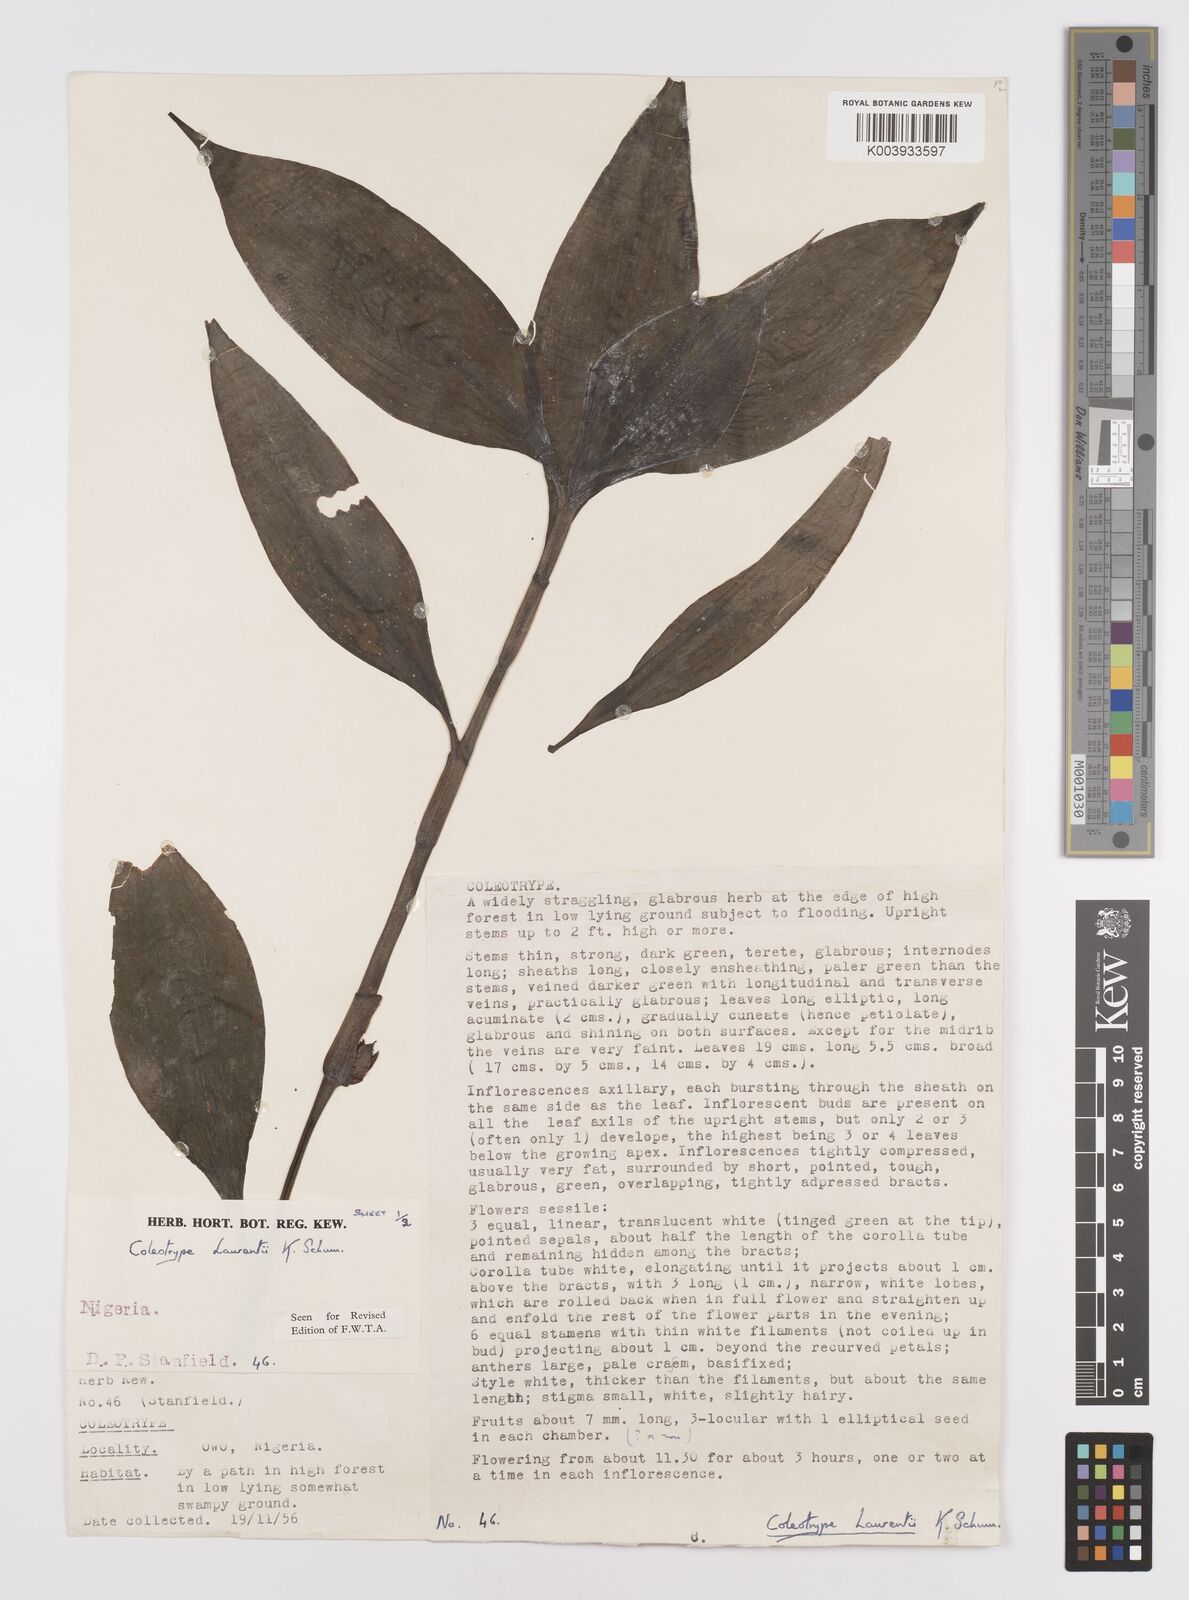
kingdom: Plantae
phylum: Tracheophyta
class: Liliopsida
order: Commelinales
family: Commelinaceae
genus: Coleotrype
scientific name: Coleotrype laurentii
